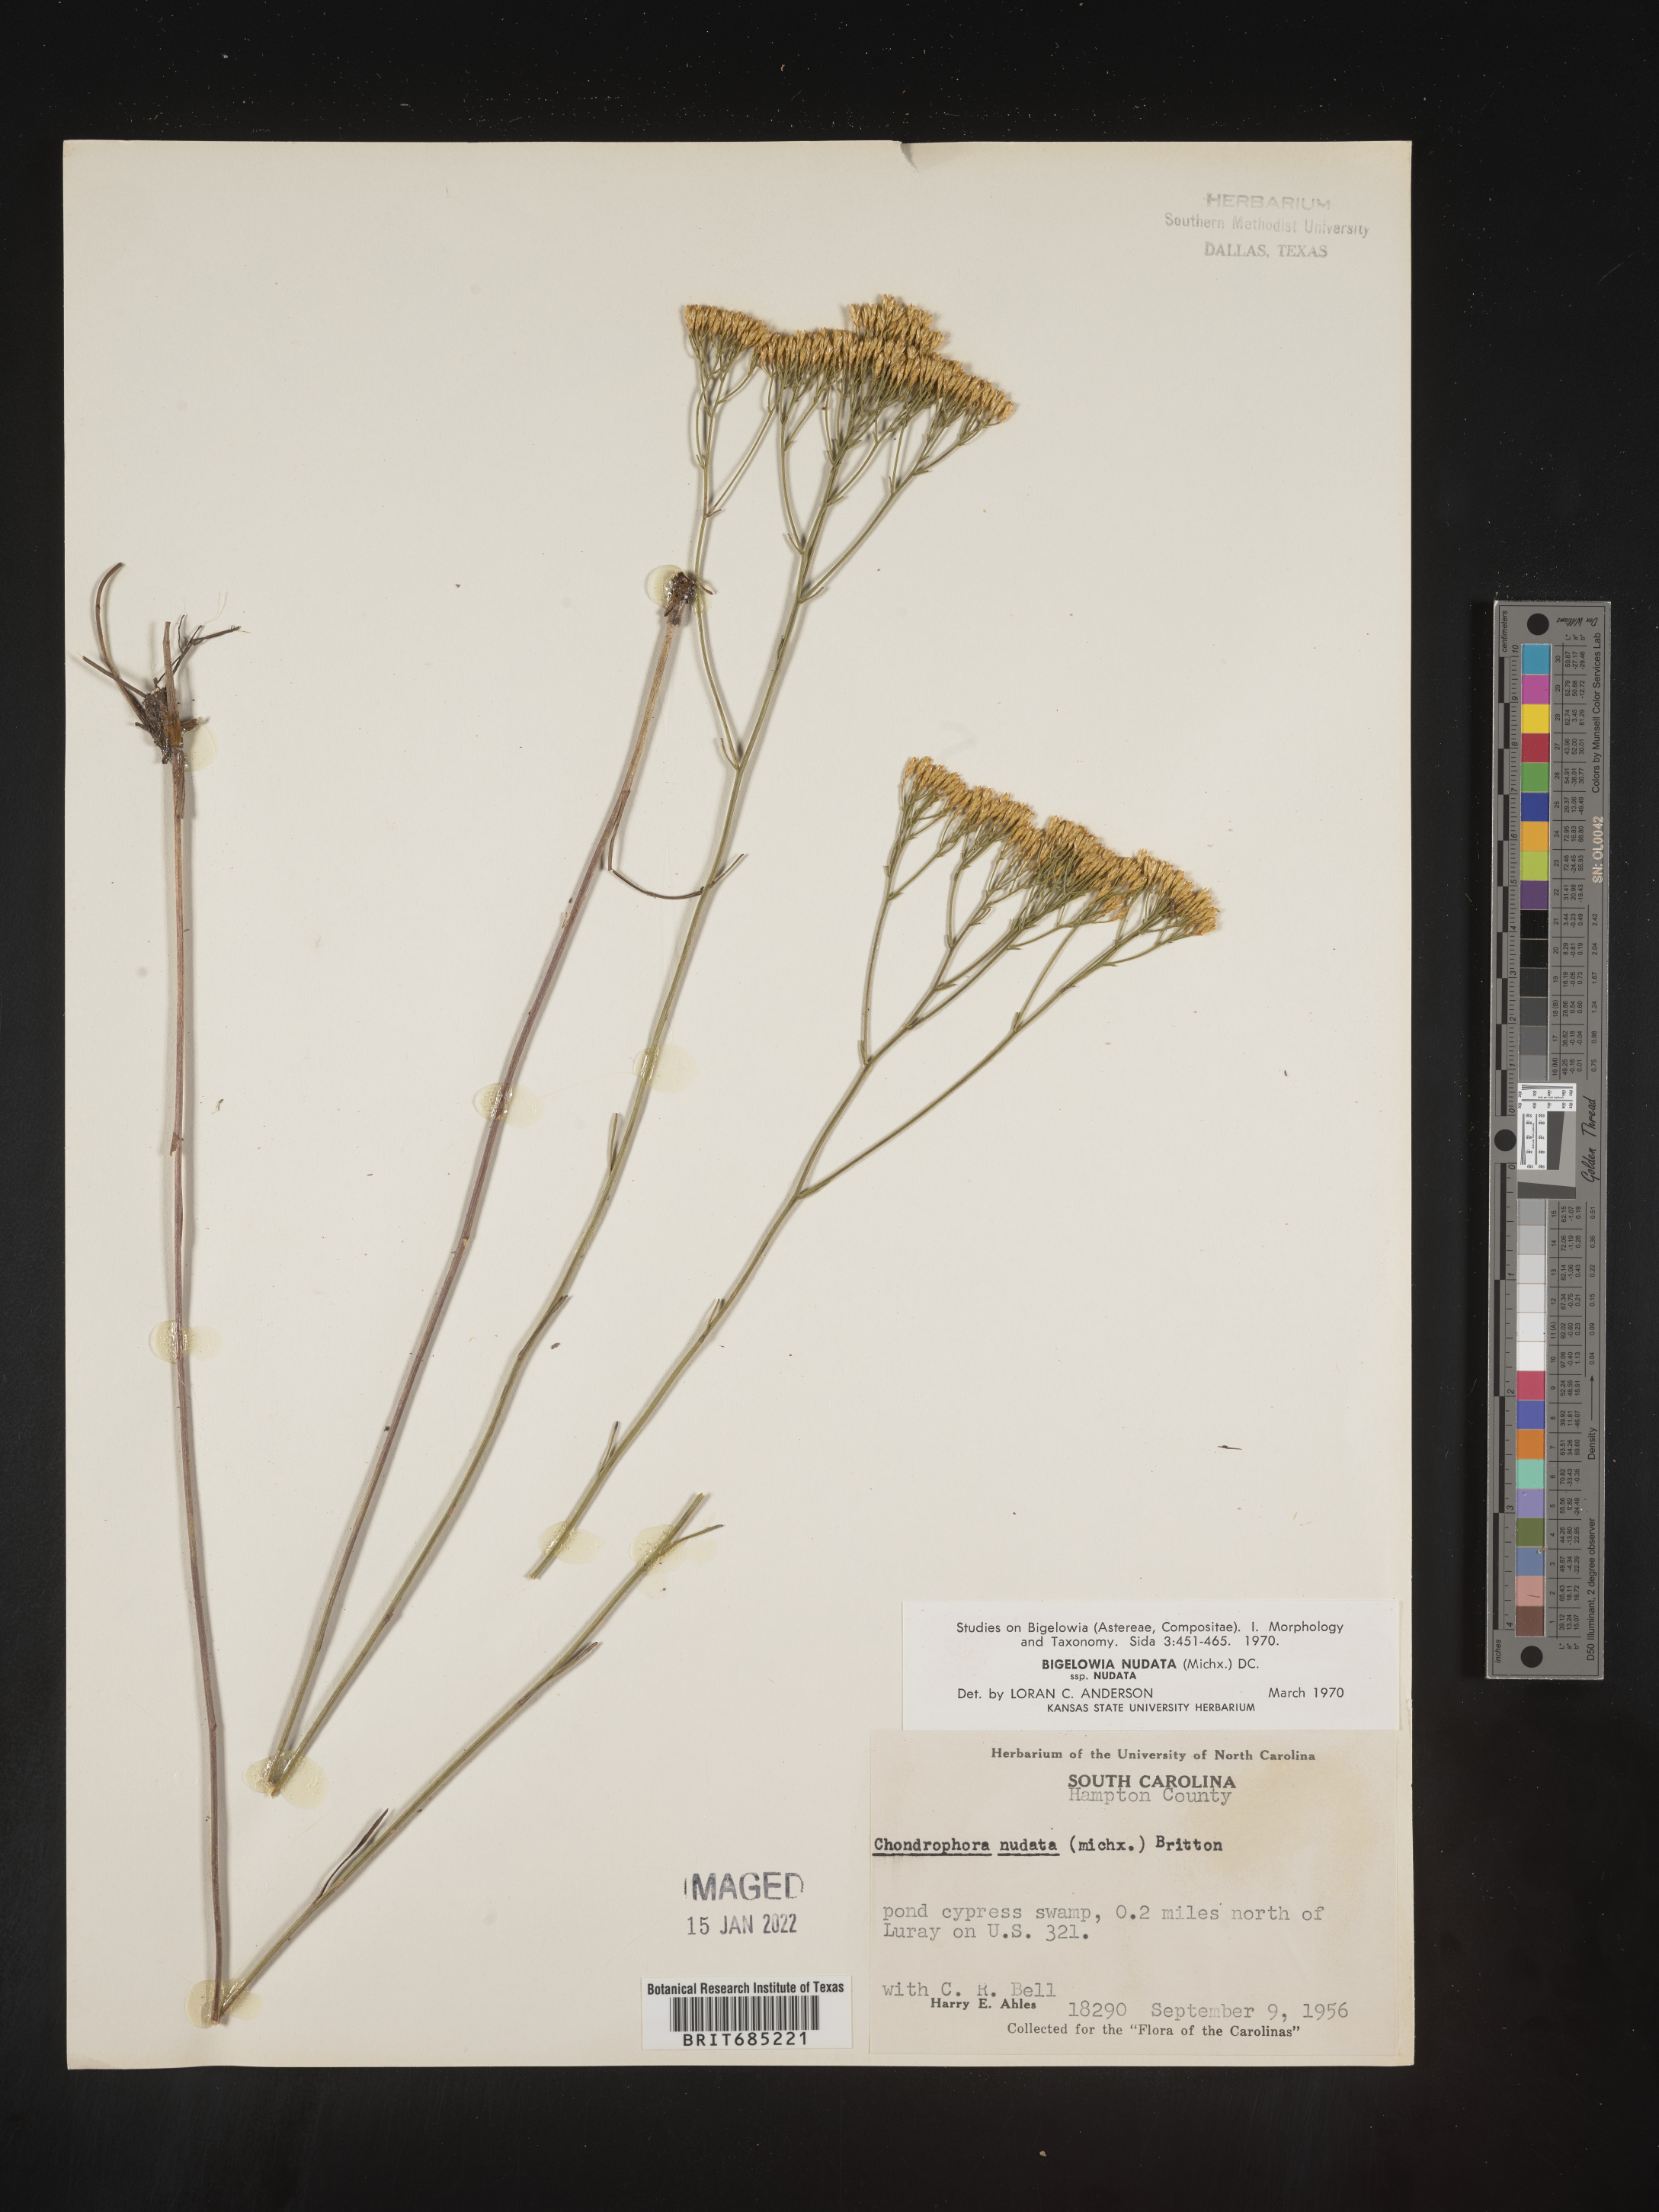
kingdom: Plantae
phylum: Tracheophyta
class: Magnoliopsida
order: Asterales
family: Asteraceae
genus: Bigelowia
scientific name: Bigelowia nudata
